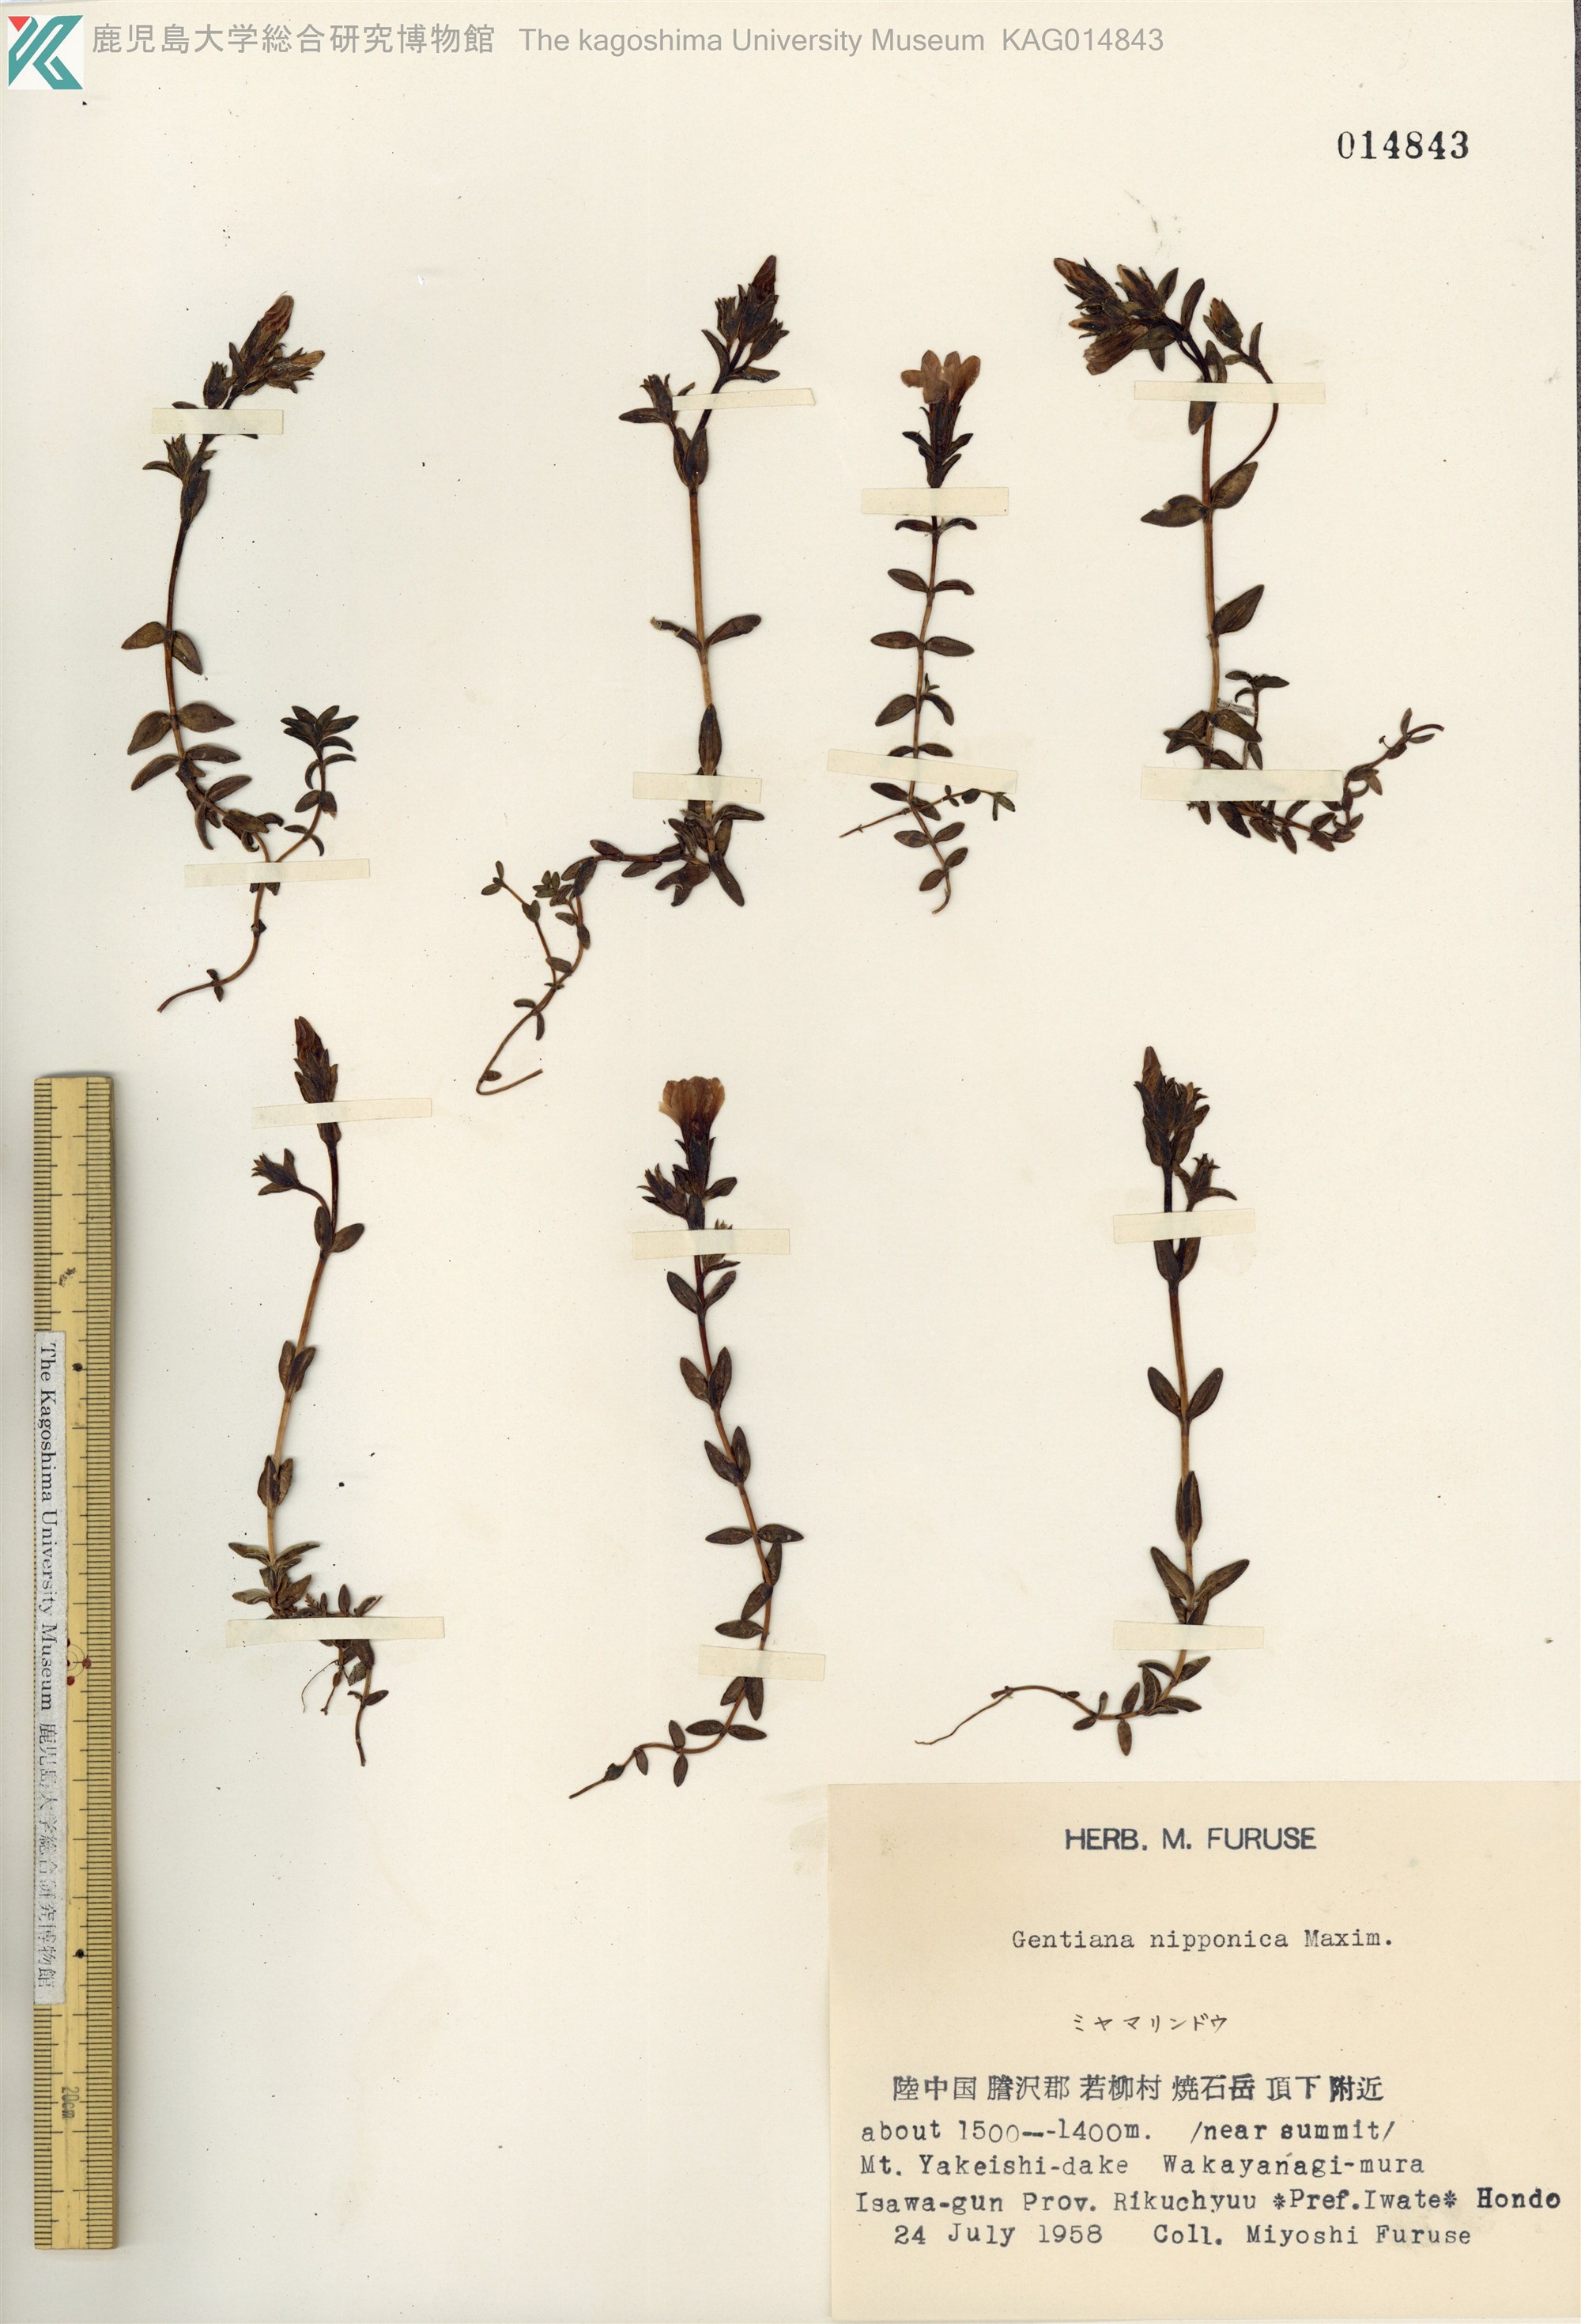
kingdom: Plantae
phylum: Tracheophyta
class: Magnoliopsida
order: Gentianales
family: Gentianaceae
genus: Gentiana
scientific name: Gentiana nipponica
